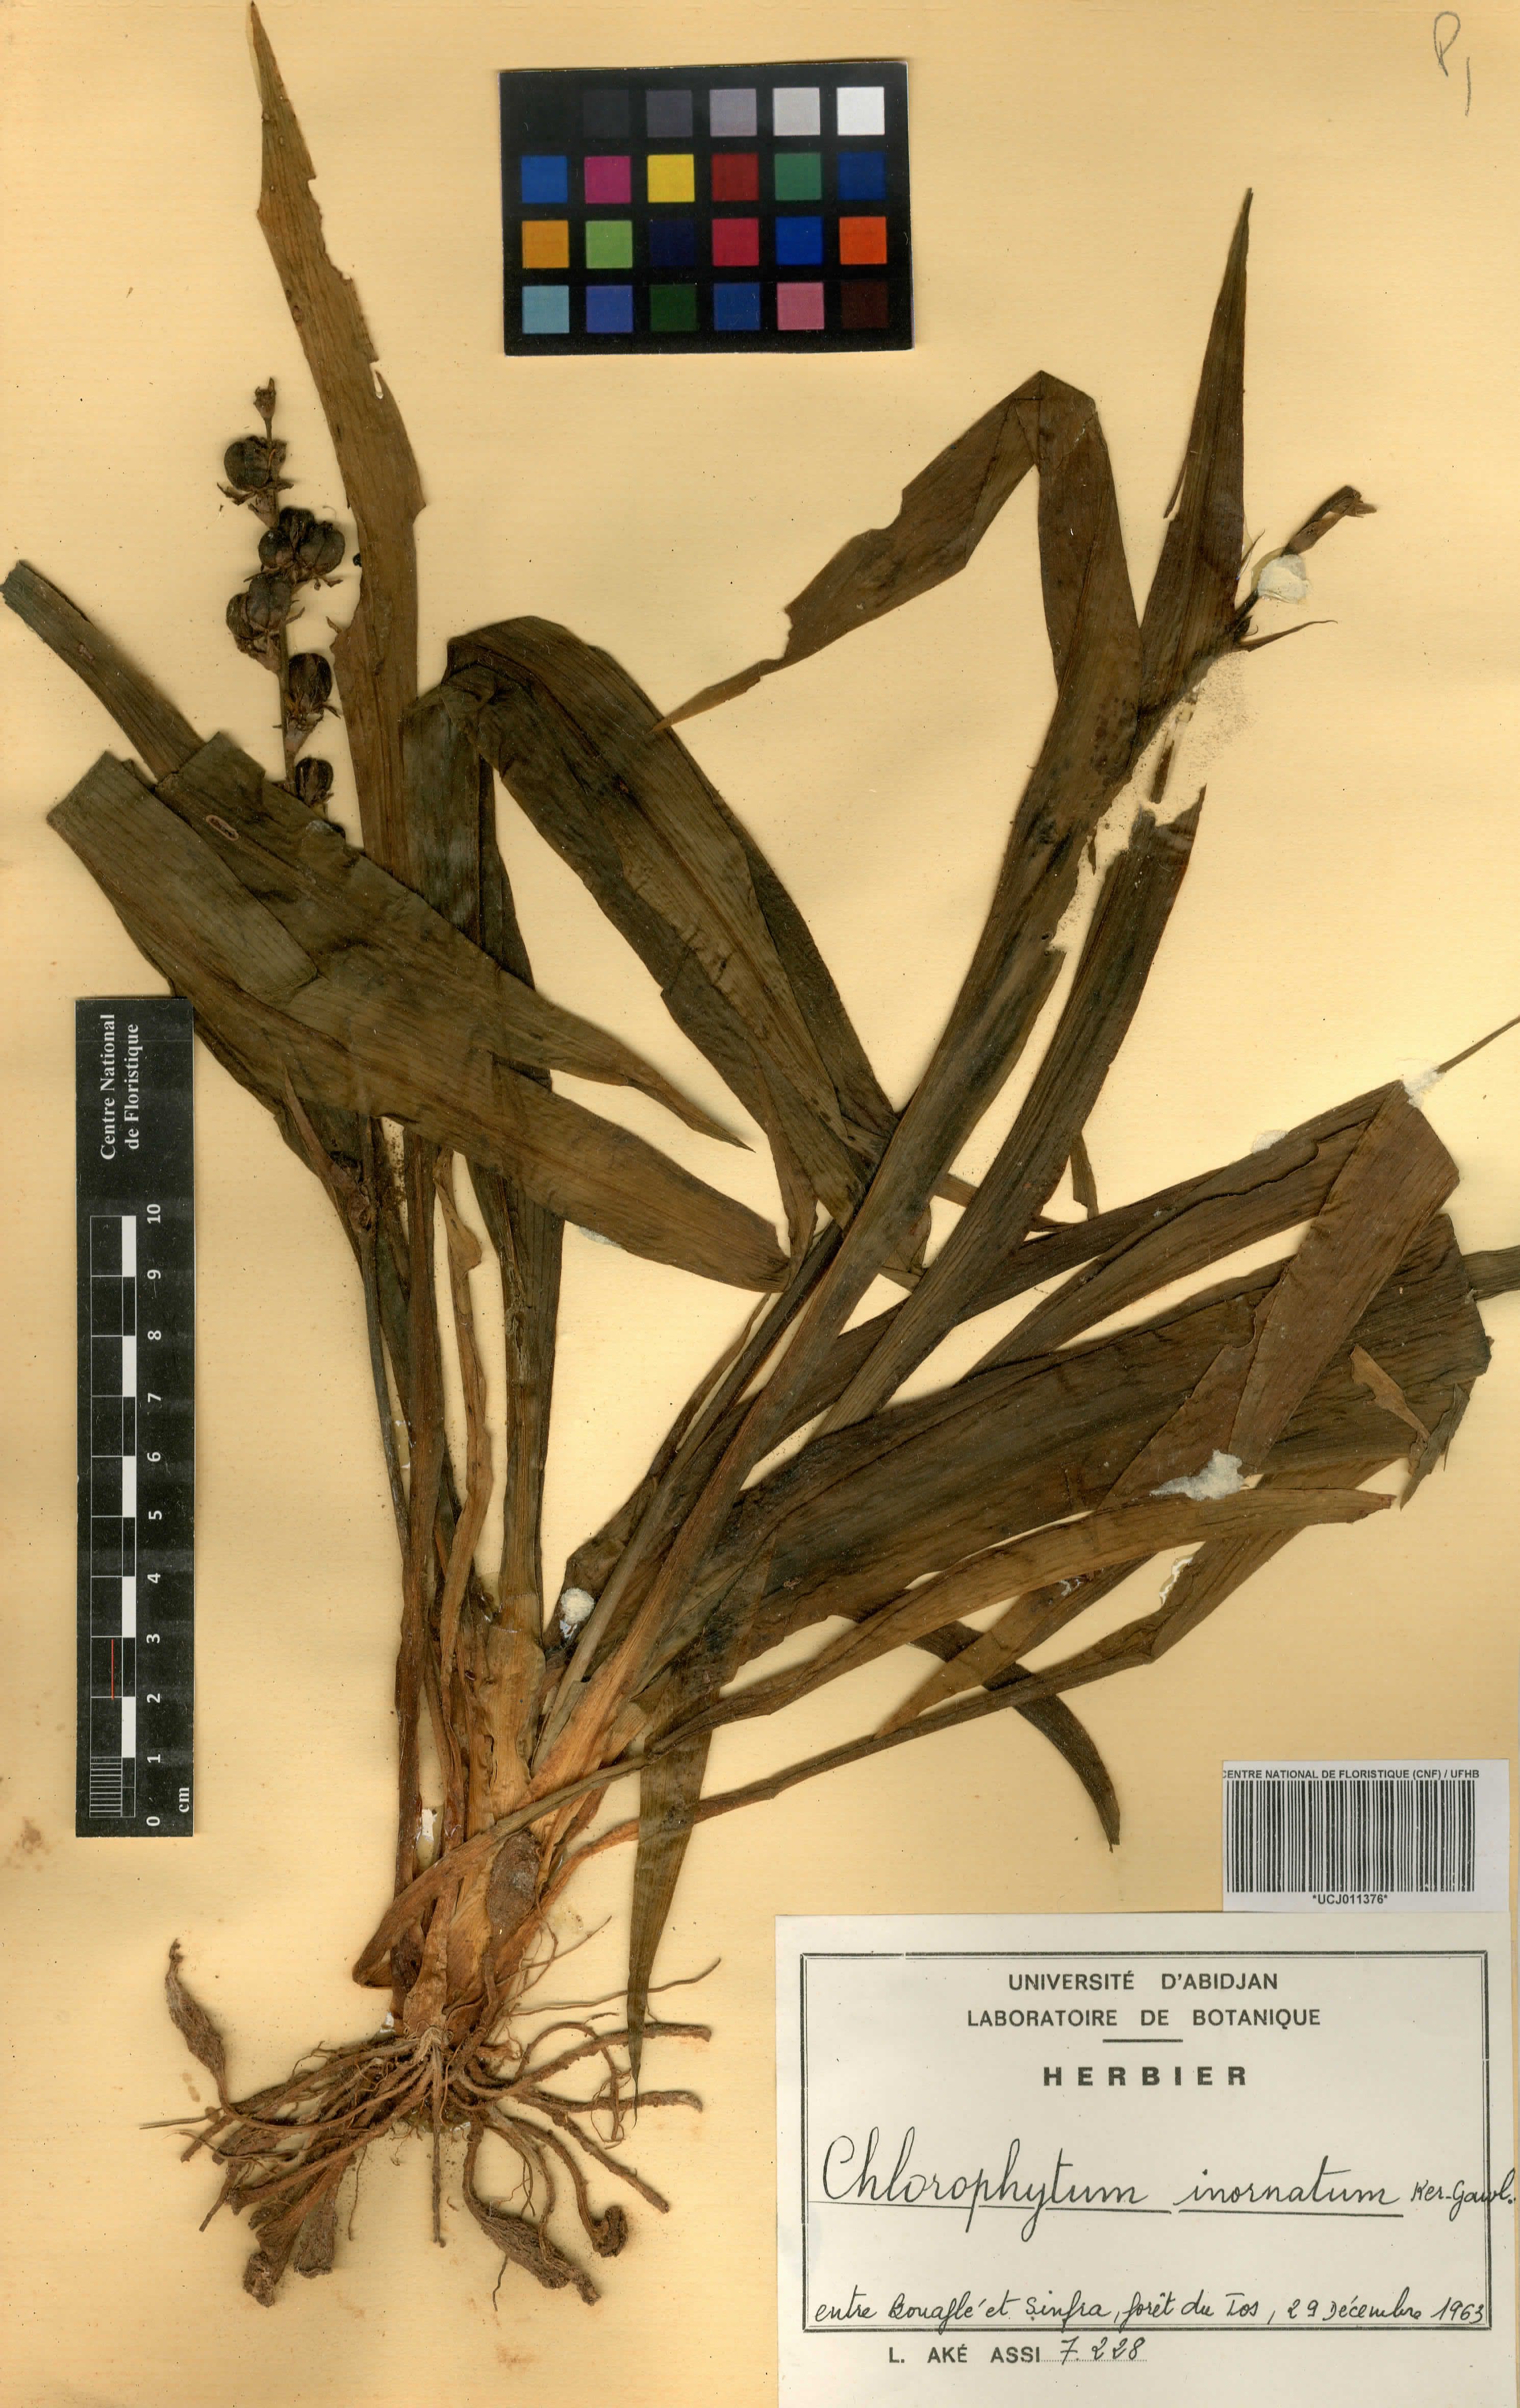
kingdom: Plantae
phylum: Tracheophyta
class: Liliopsida
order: Asparagales
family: Asparagaceae
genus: Chlorophytum
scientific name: Chlorophytum inornatum
